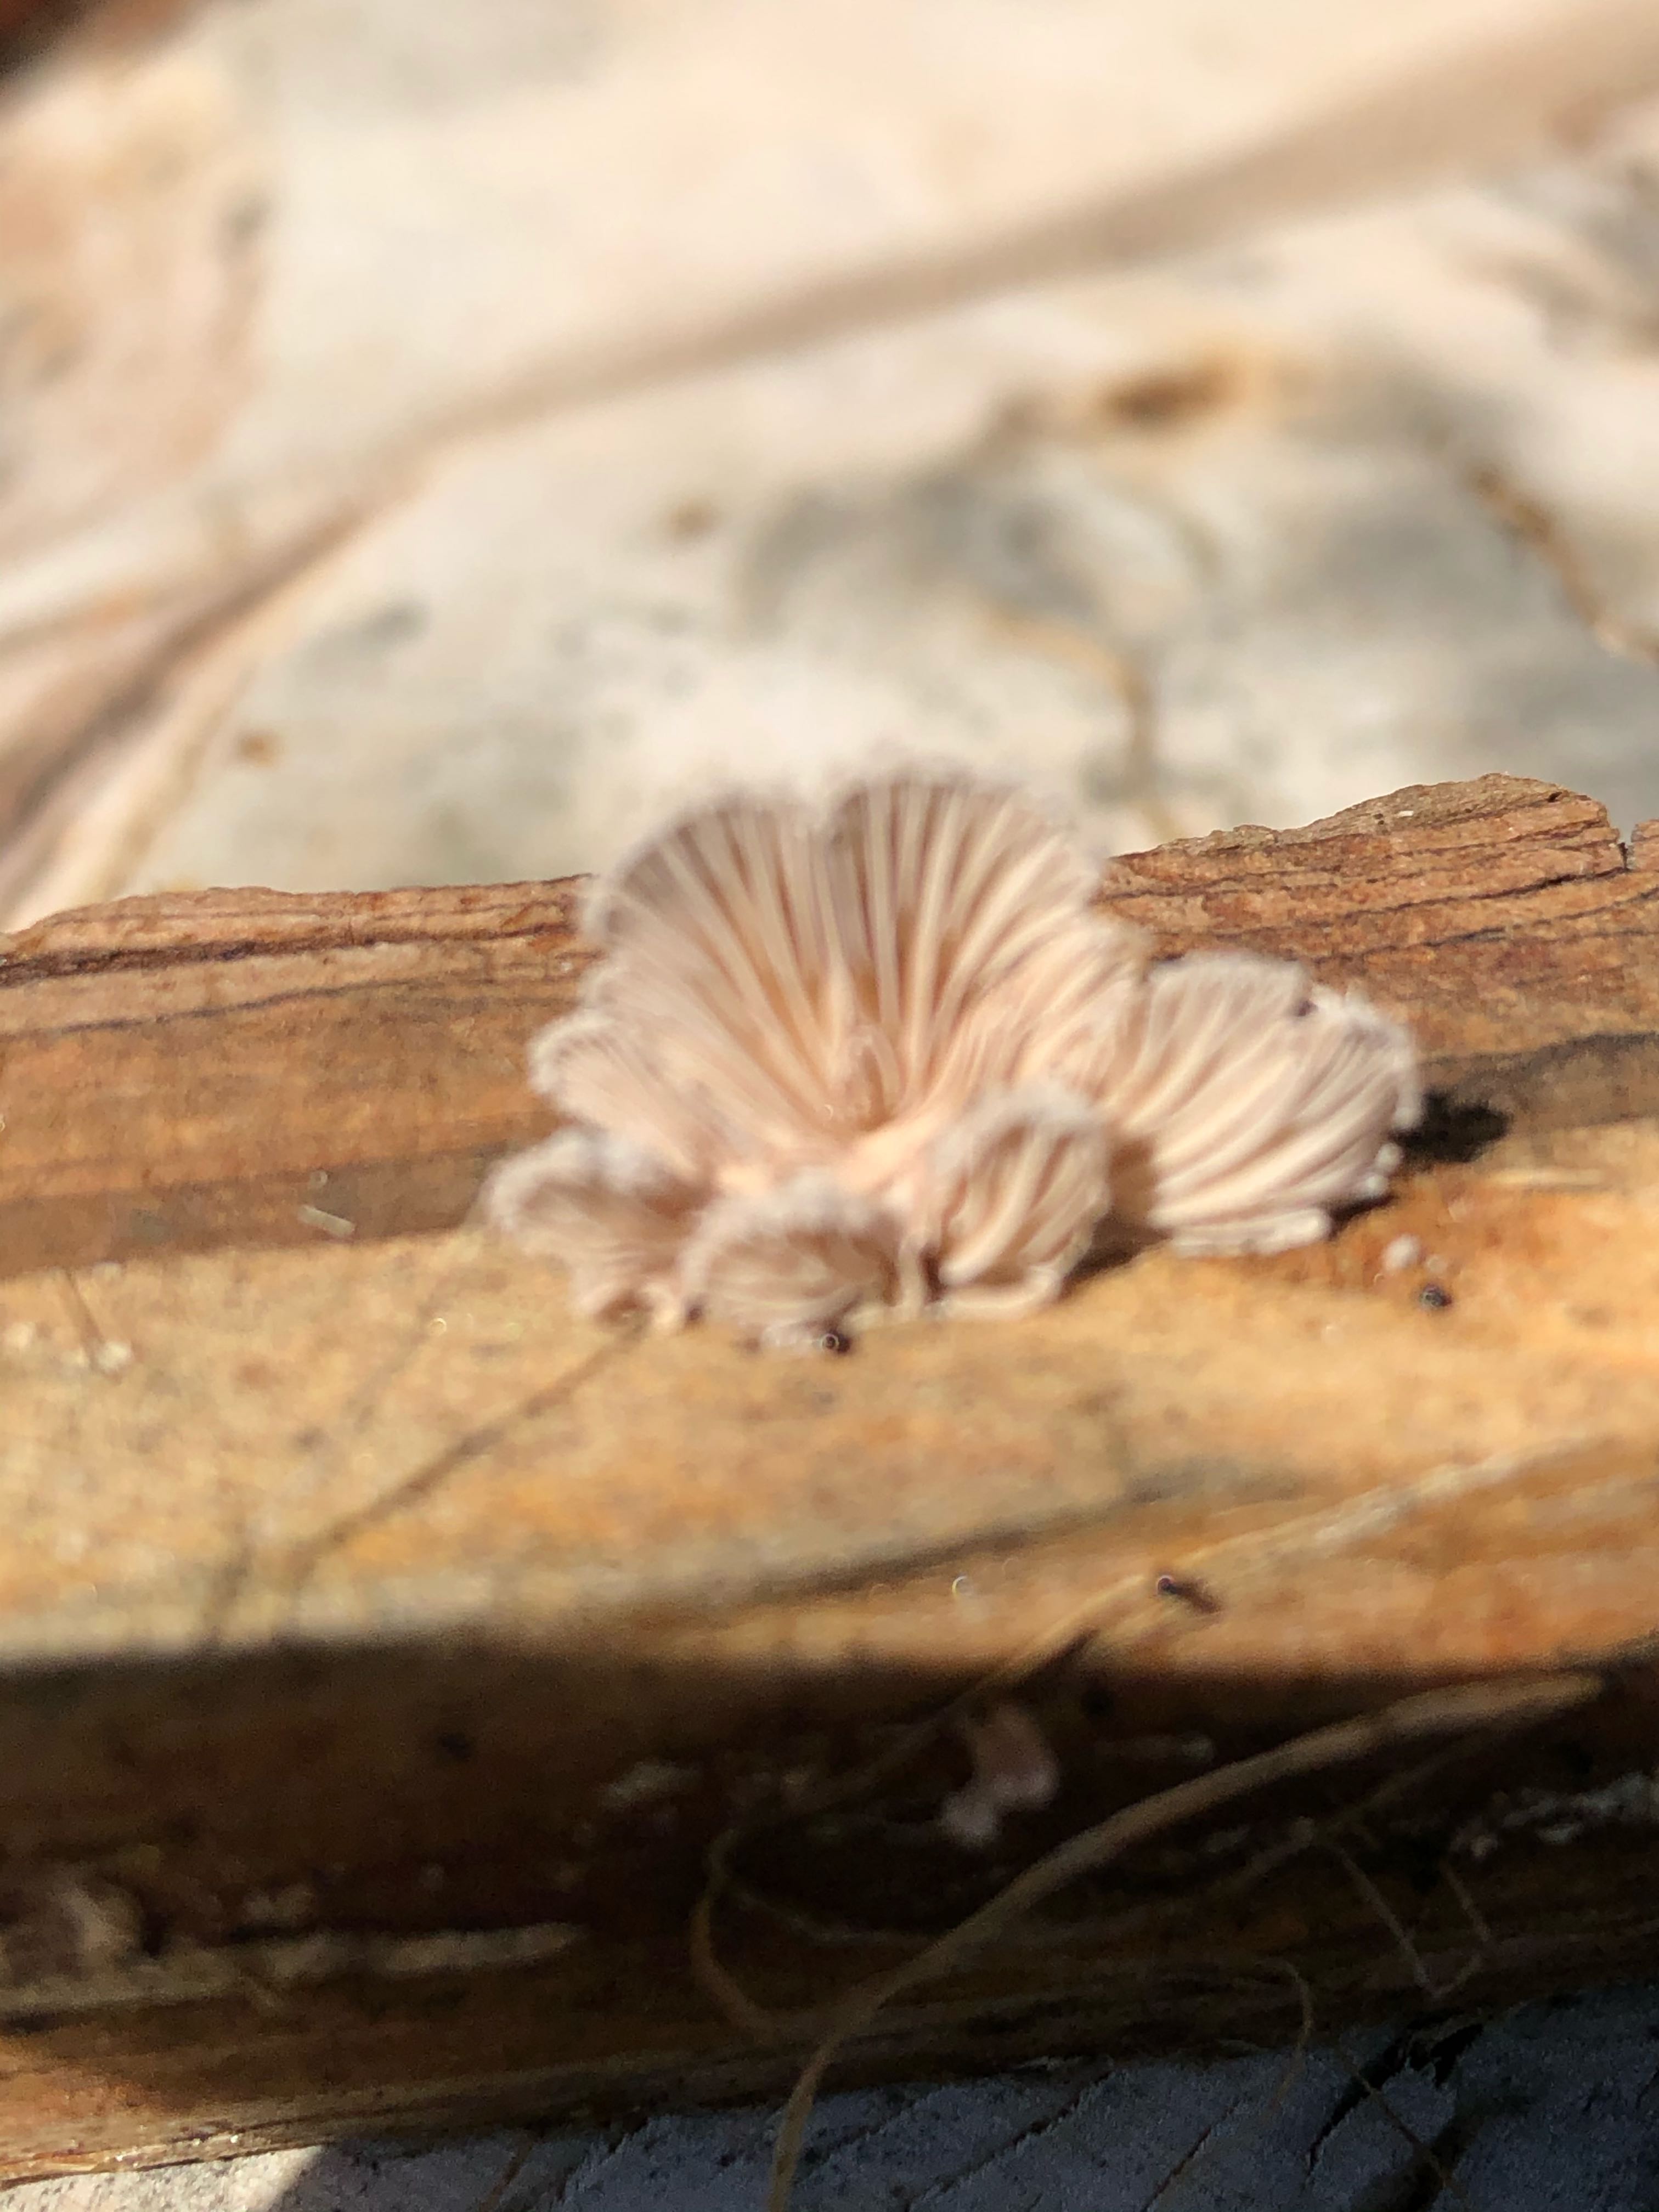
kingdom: Fungi
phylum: Basidiomycota
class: Agaricomycetes
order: Agaricales
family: Schizophyllaceae
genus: Schizophyllum
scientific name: Schizophyllum commune
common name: kløvblad
